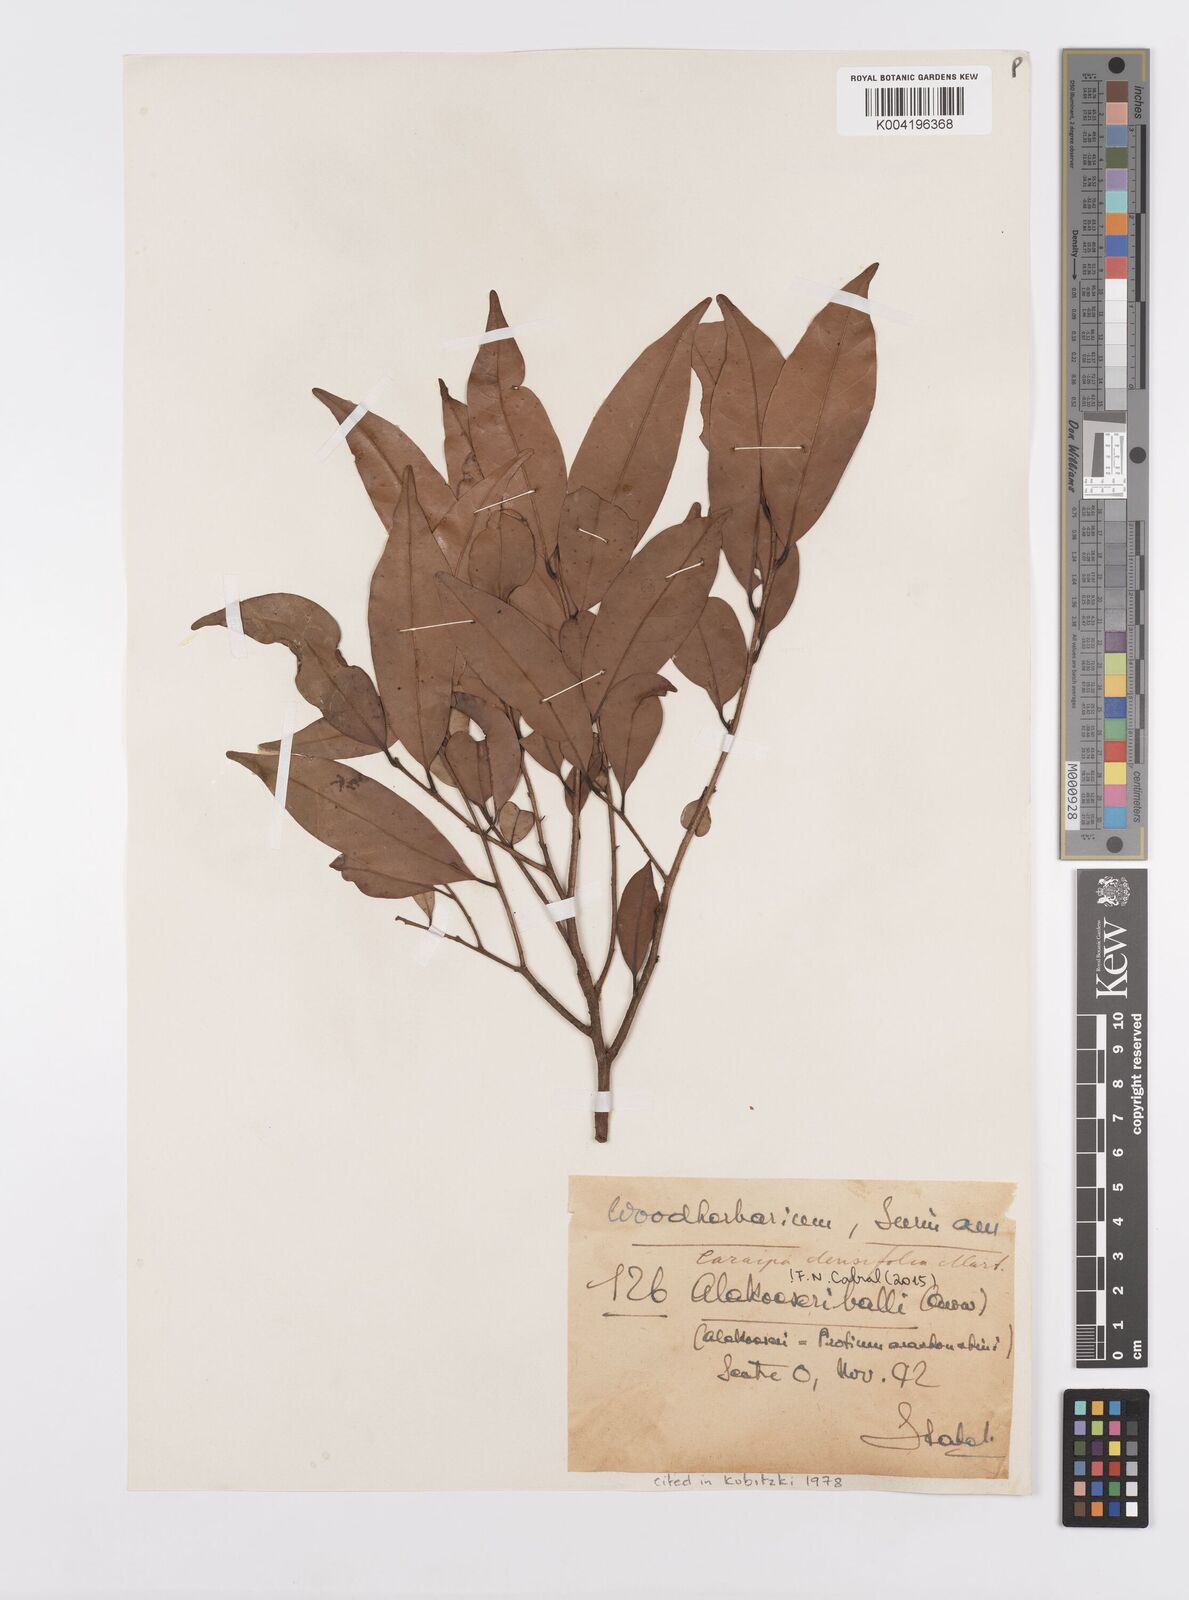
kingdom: Plantae
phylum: Tracheophyta
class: Magnoliopsida
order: Malpighiales
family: Calophyllaceae
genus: Caraipa
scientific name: Caraipa densifolia
